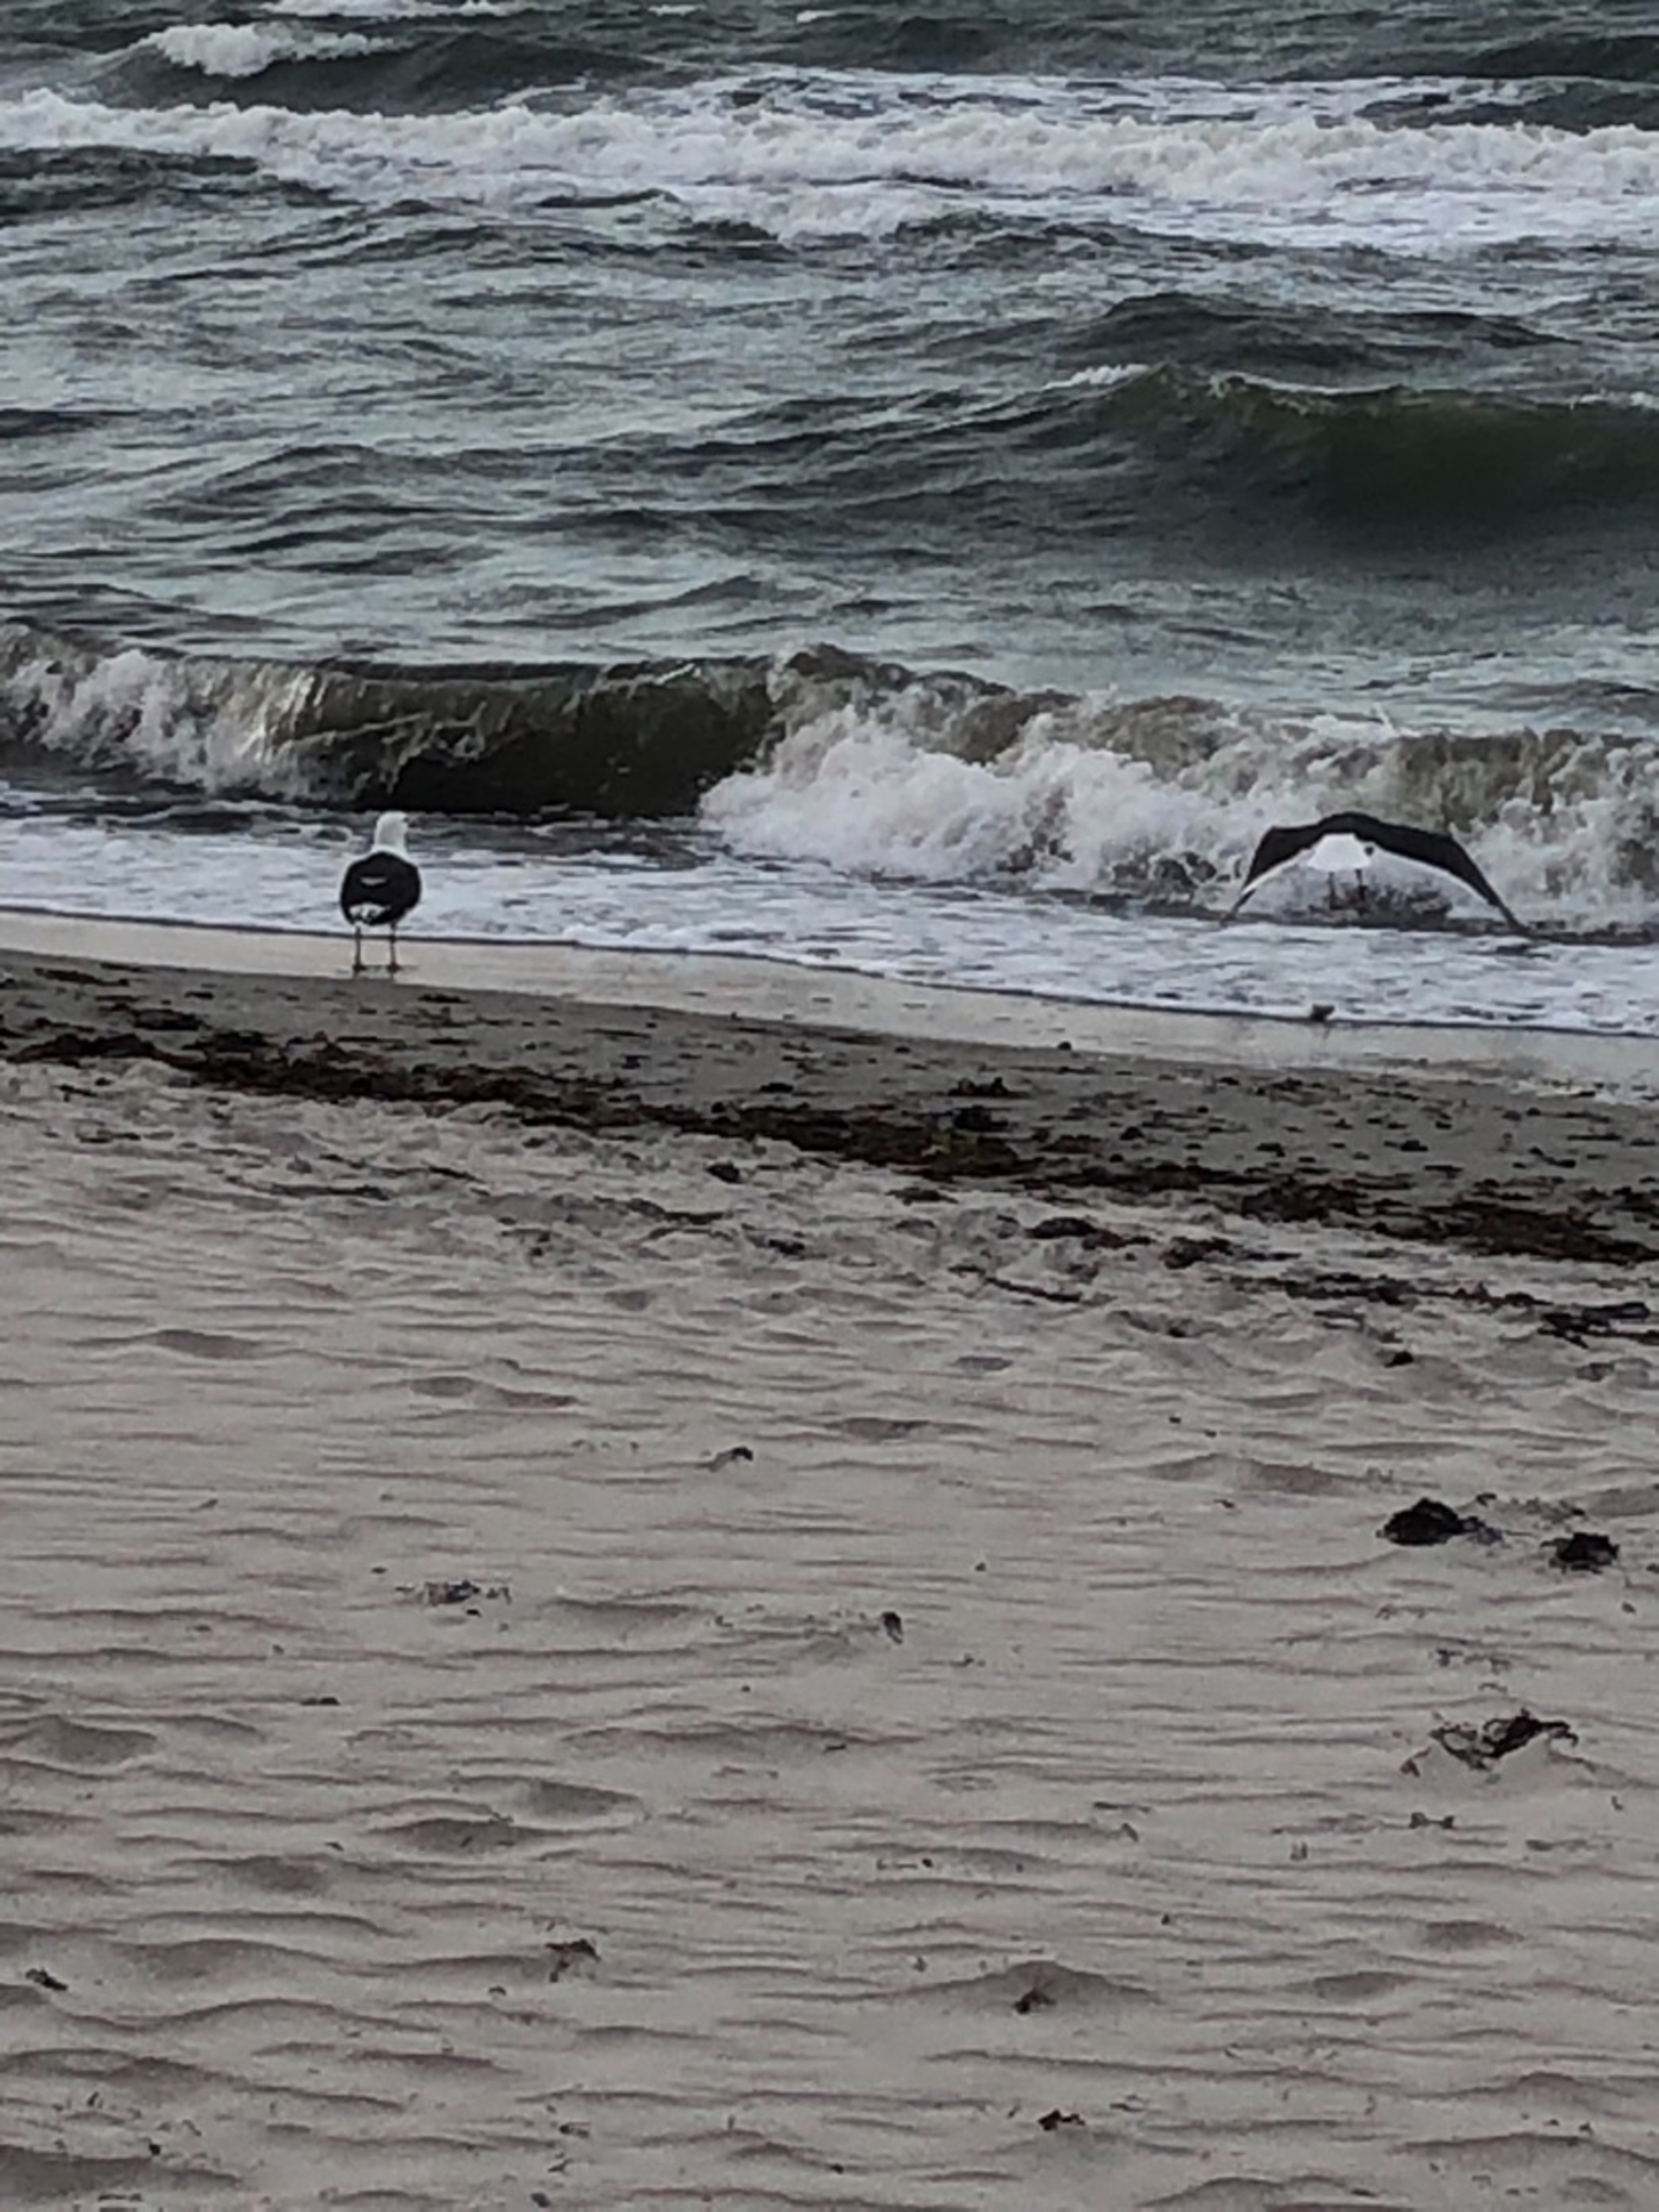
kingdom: Animalia
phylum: Chordata
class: Aves
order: Charadriiformes
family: Laridae
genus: Larus
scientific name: Larus marinus
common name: Svartbag
